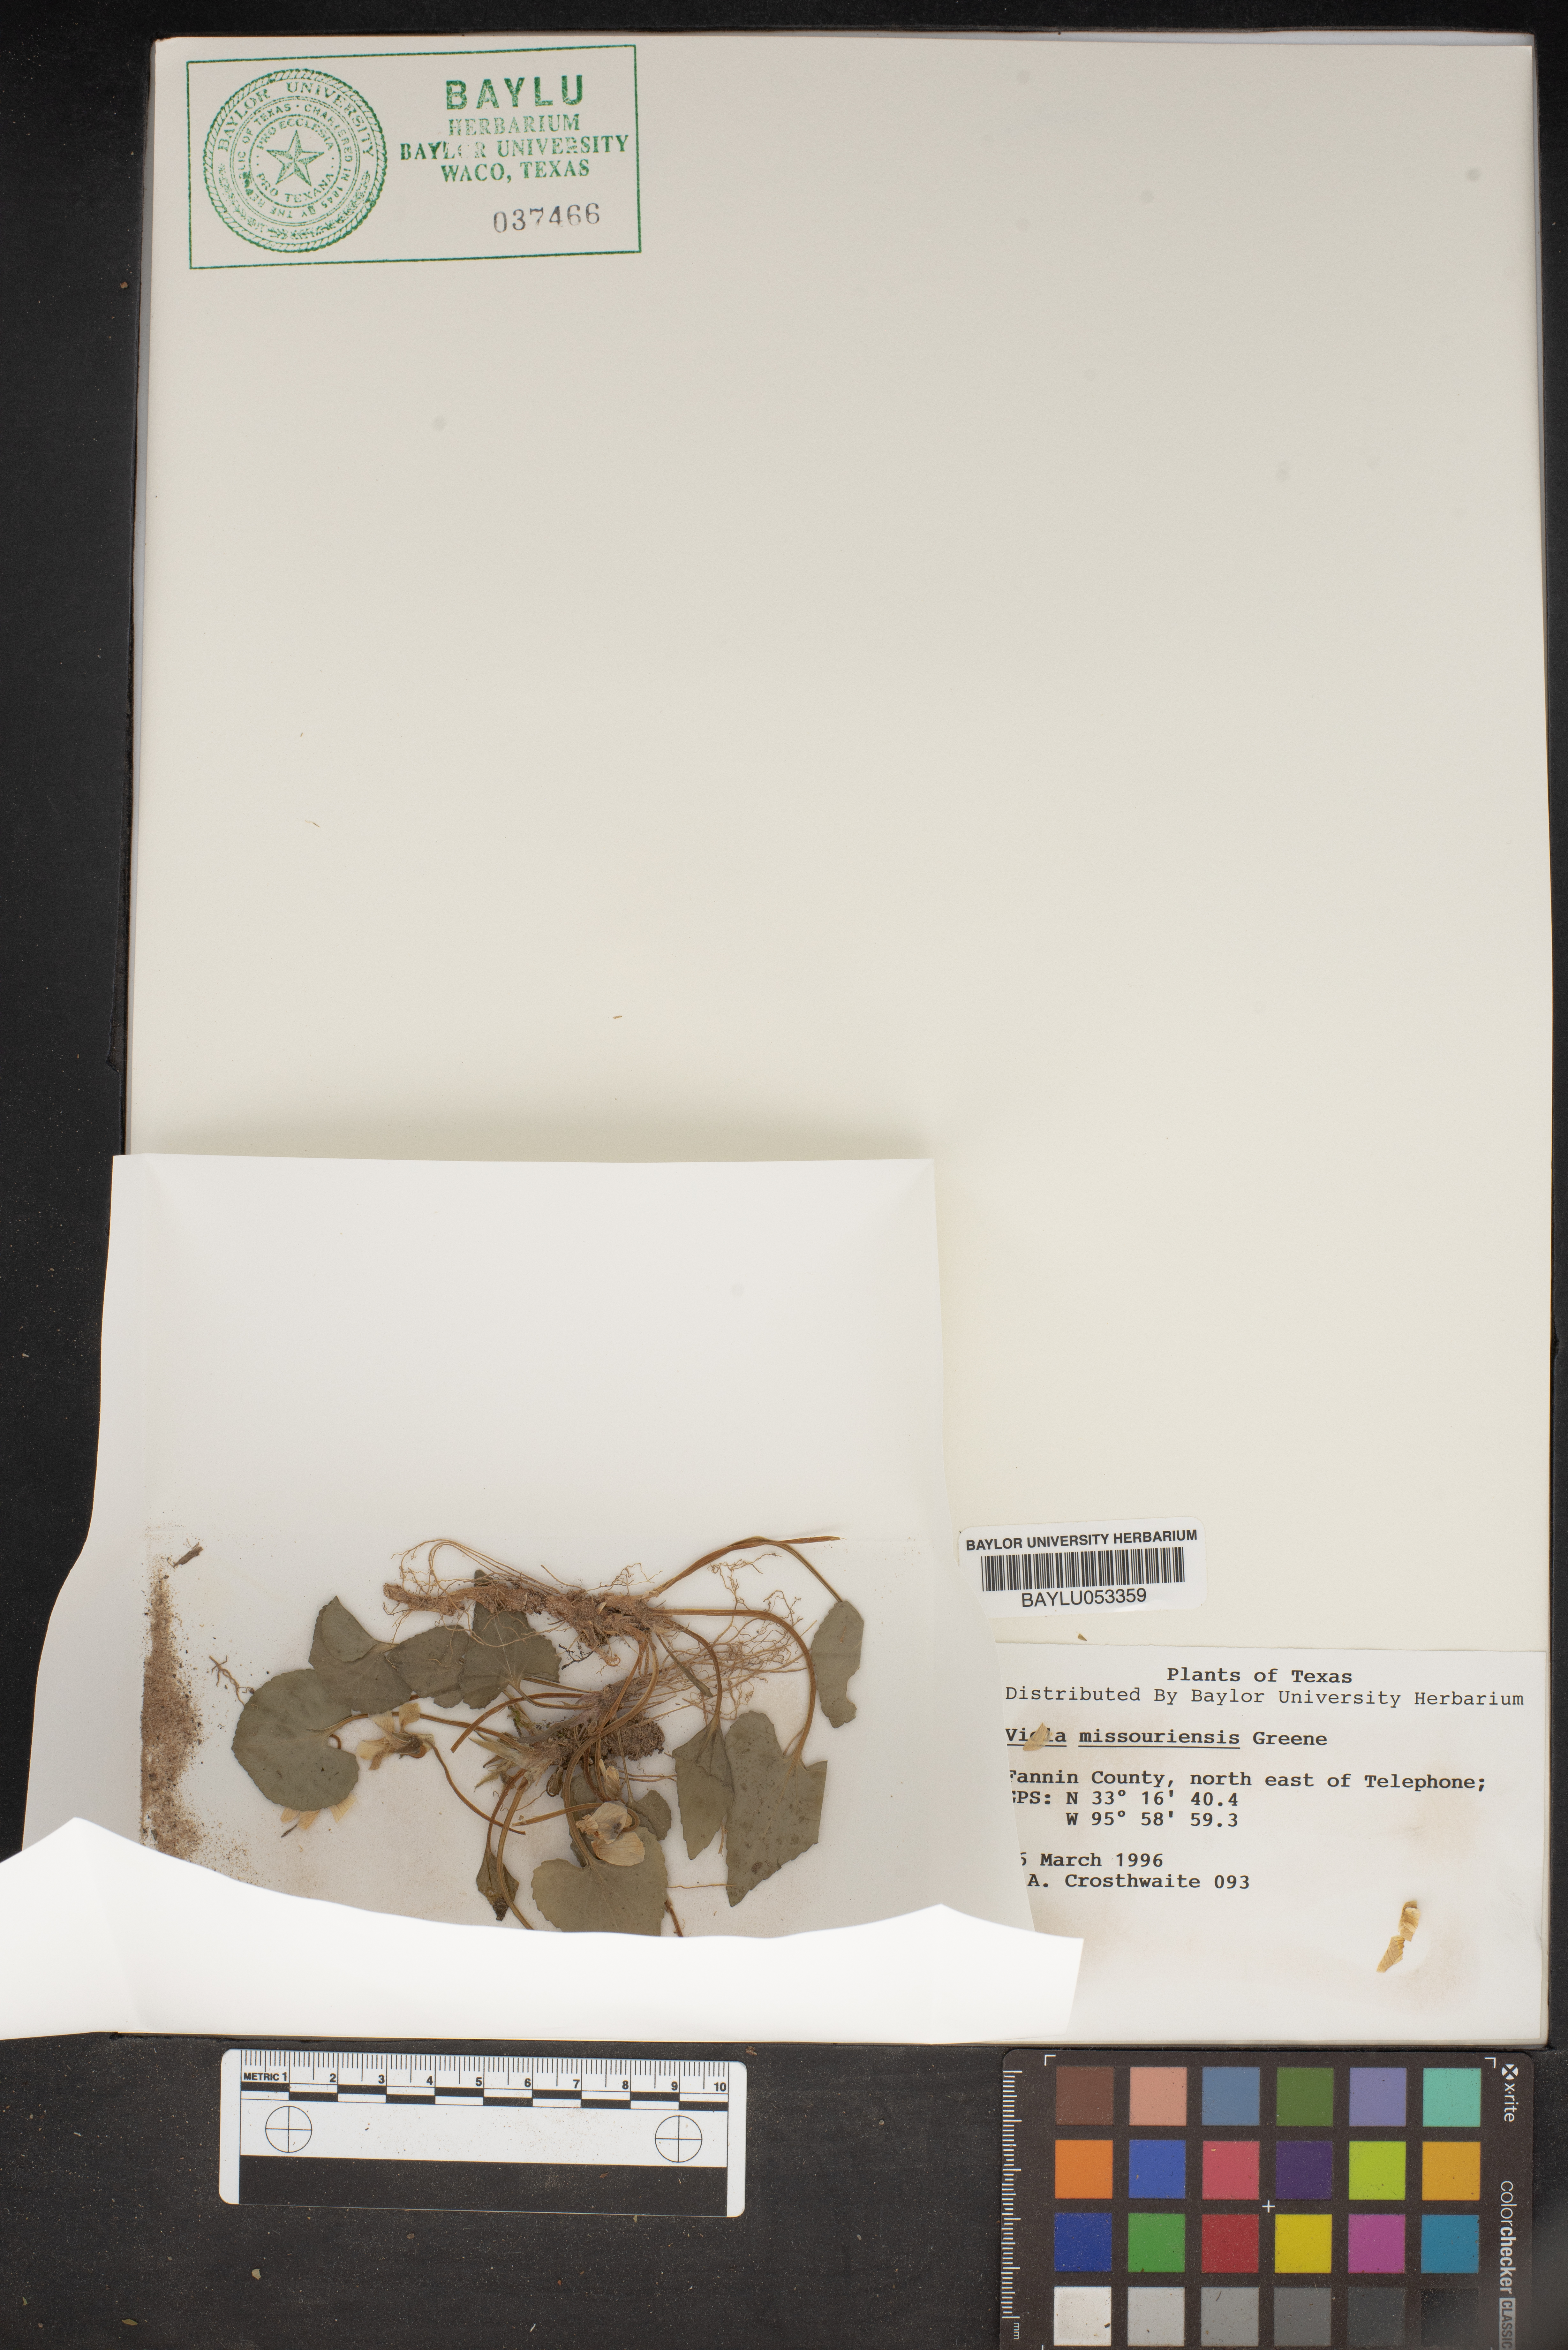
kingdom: Plantae
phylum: Tracheophyta
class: Magnoliopsida
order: Malpighiales
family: Violaceae
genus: Viola
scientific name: Viola missouriensis
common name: Missouri violet
